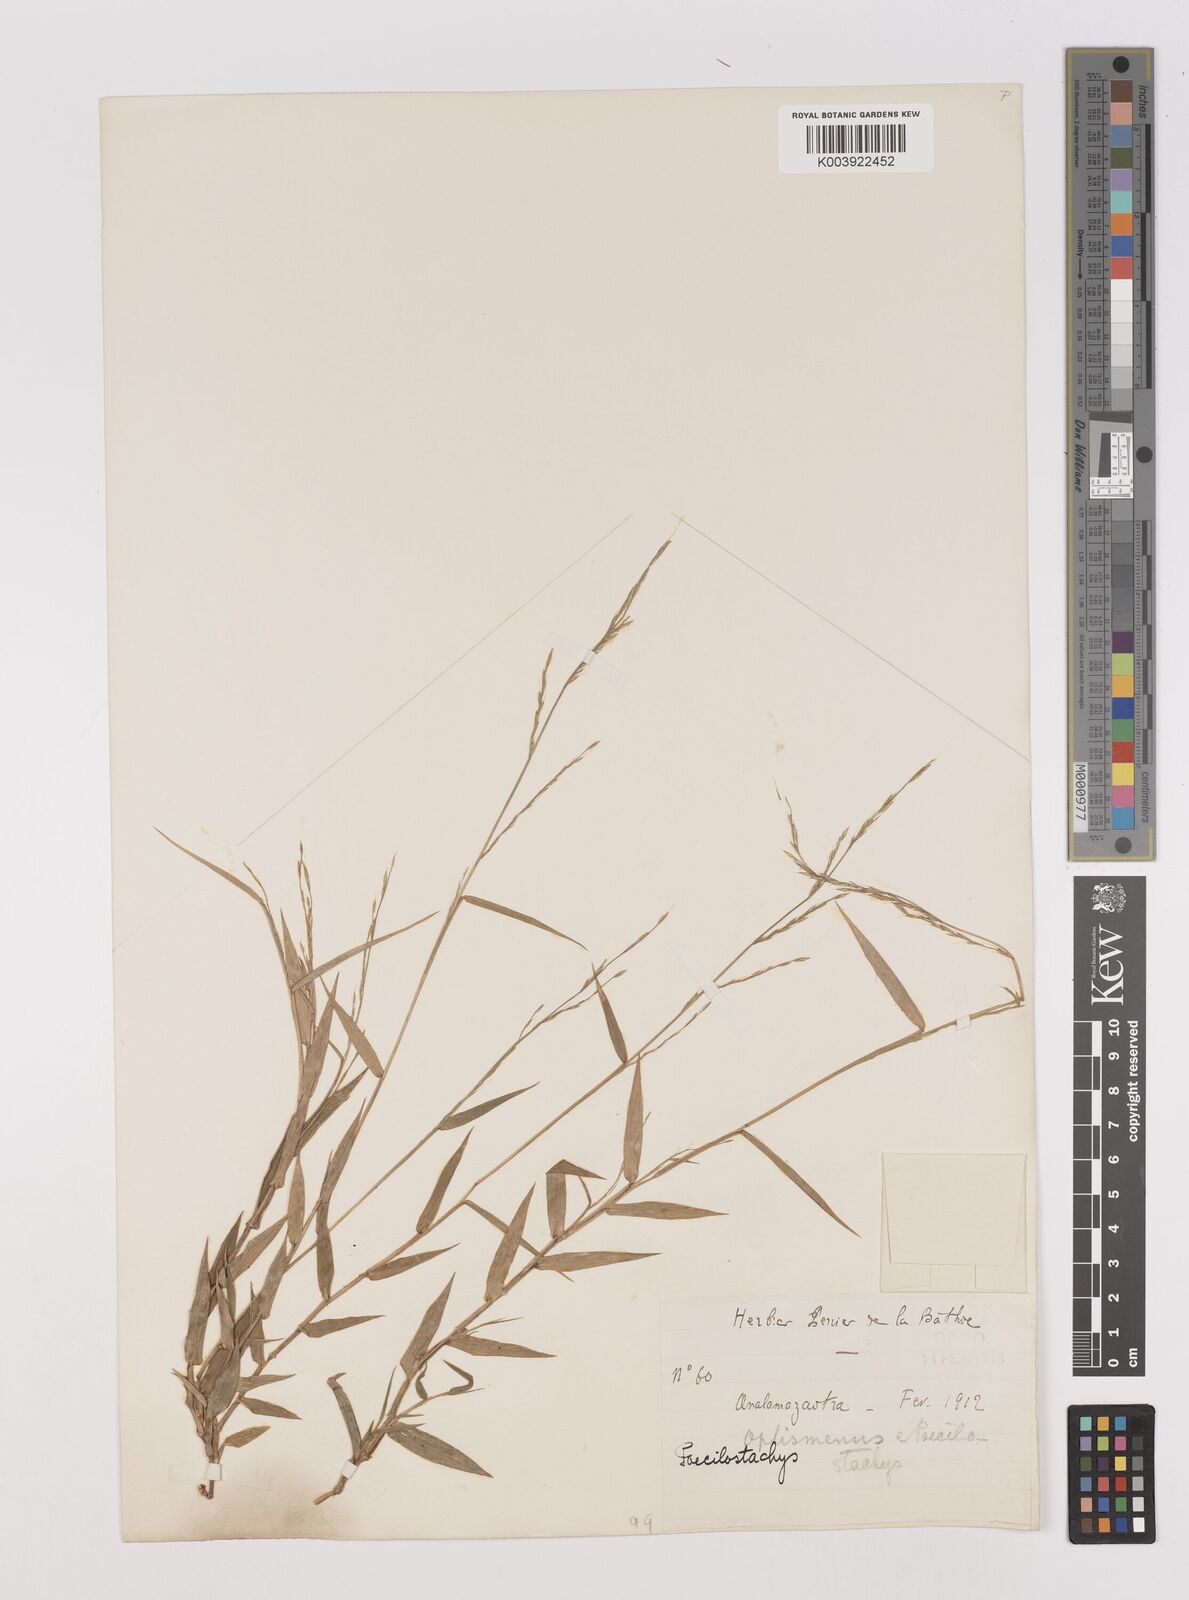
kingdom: Plantae
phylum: Tracheophyta
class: Liliopsida
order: Poales
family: Poaceae
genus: Poecilostachys
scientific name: Poecilostachys bakeri
